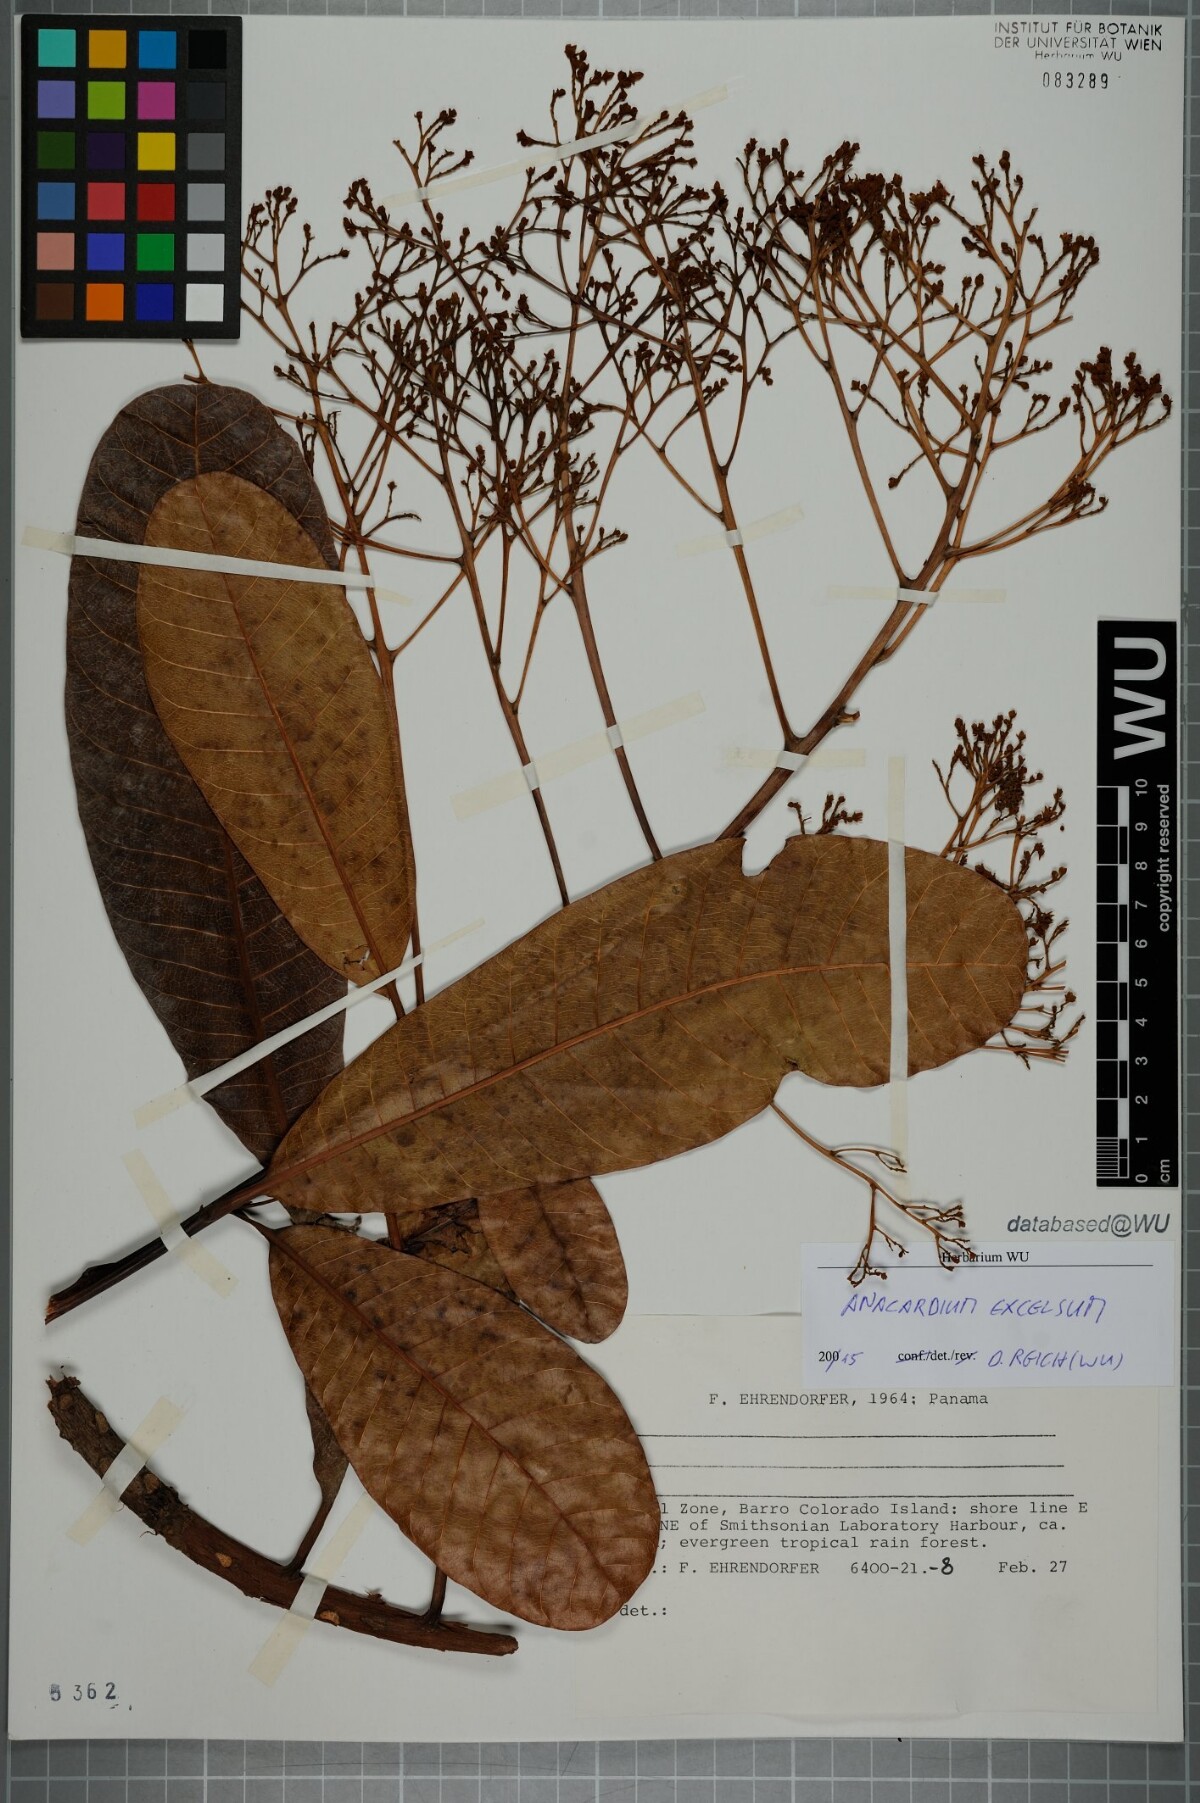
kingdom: Plantae
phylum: Tracheophyta
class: Magnoliopsida
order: Sapindales
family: Anacardiaceae
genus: Anacardium
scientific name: Anacardium excelsum
